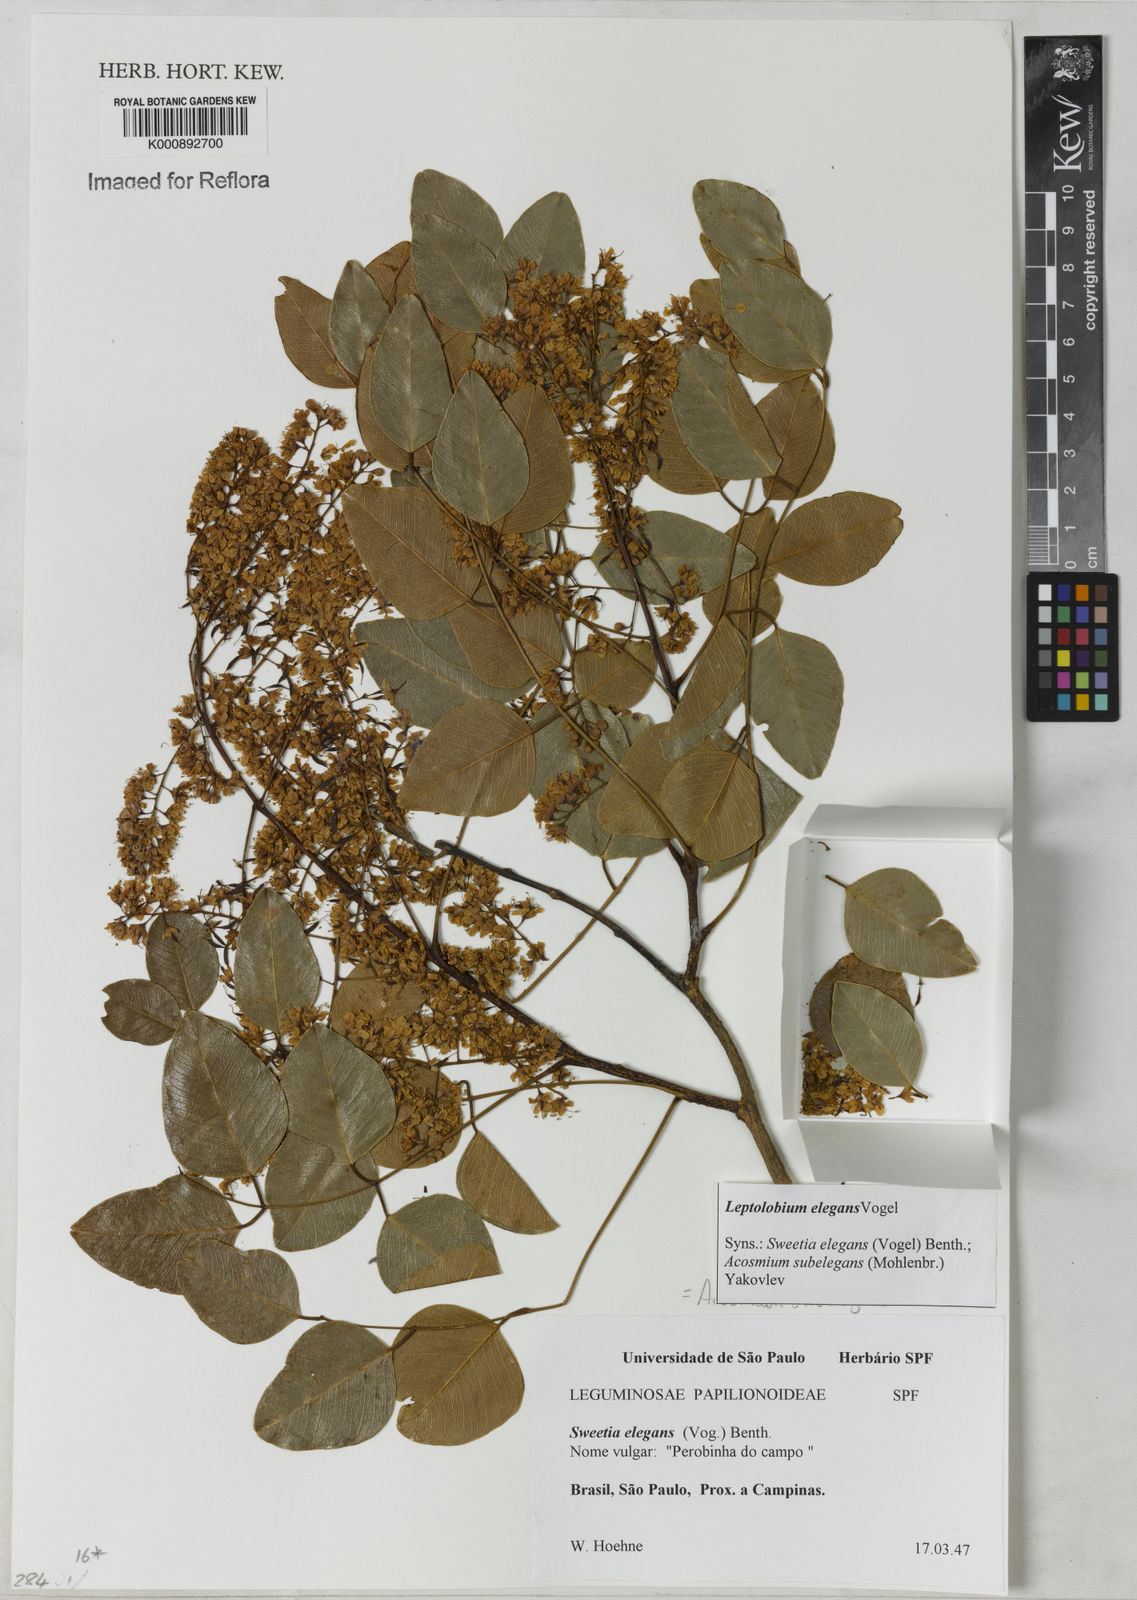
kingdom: Plantae
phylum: Tracheophyta
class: Magnoliopsida
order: Fabales
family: Fabaceae
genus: Leptolobium
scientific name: Leptolobium elegans
